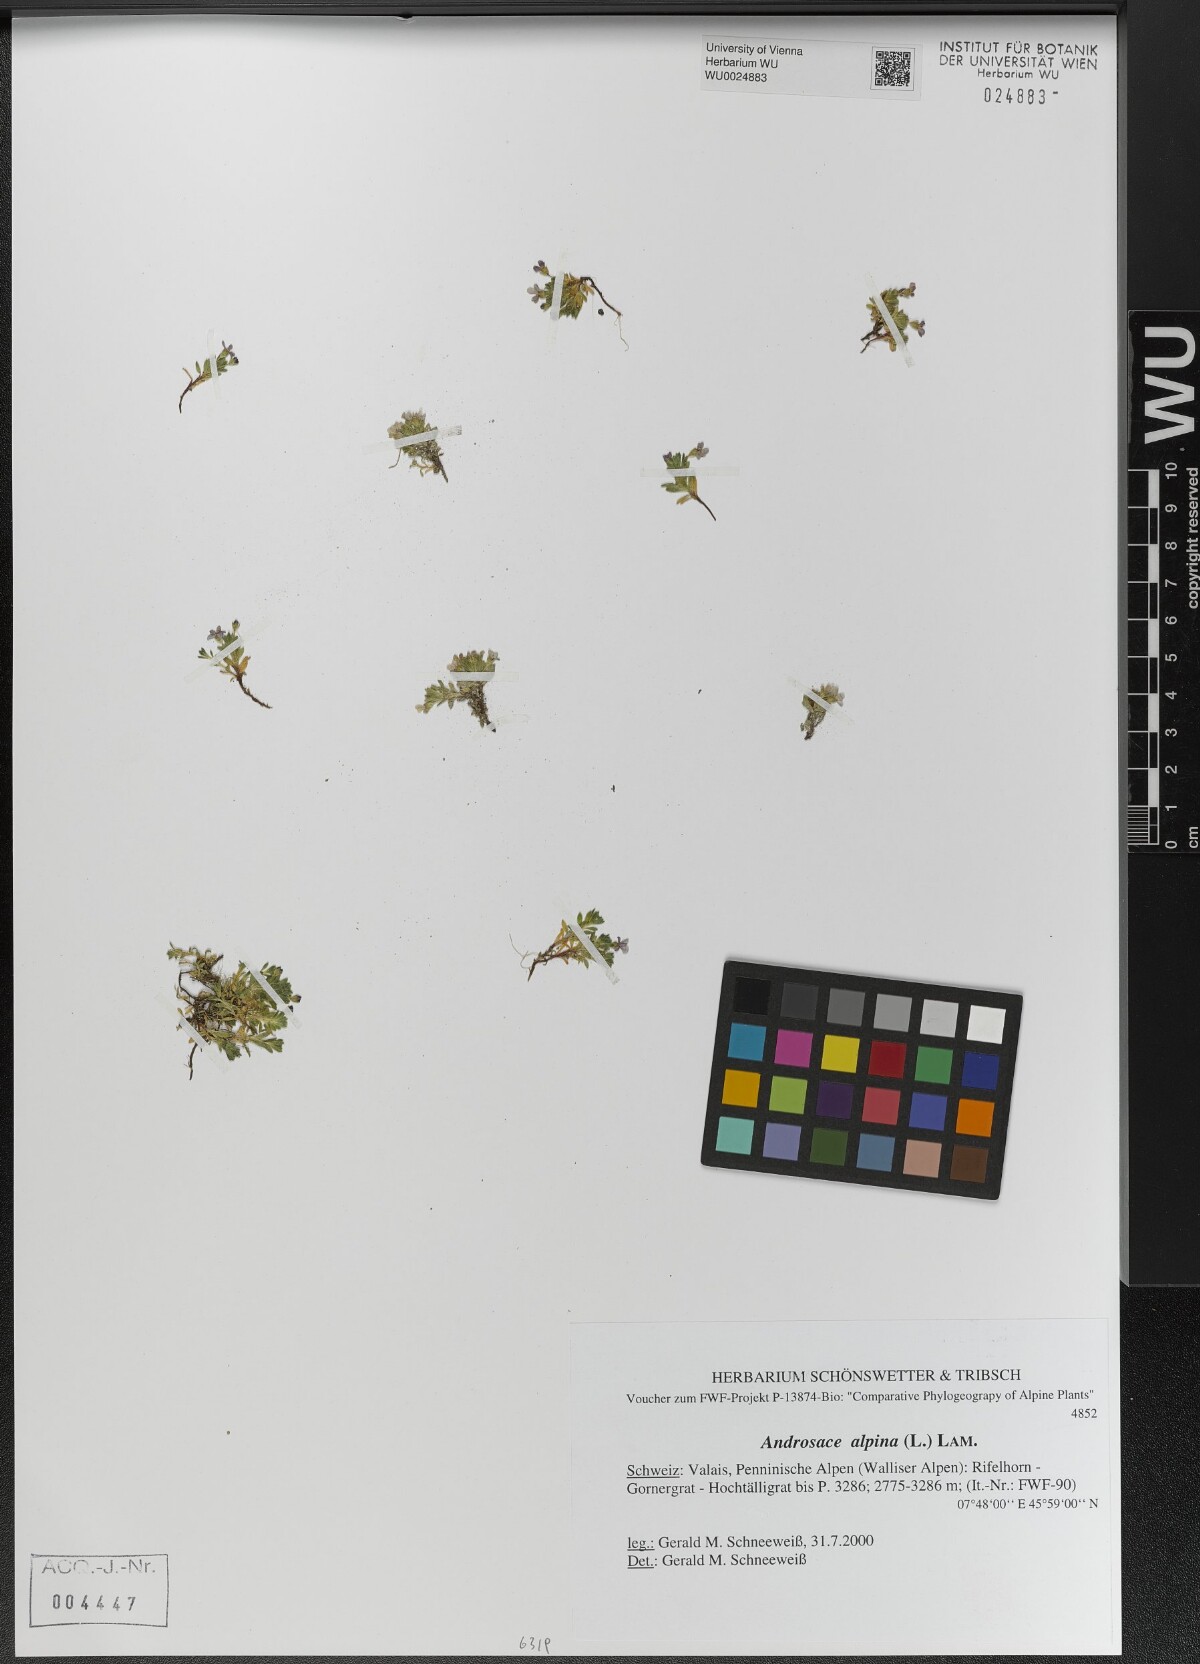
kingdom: Plantae
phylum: Tracheophyta
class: Magnoliopsida
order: Ericales
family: Primulaceae
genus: Androsace
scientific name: Androsace alpina
